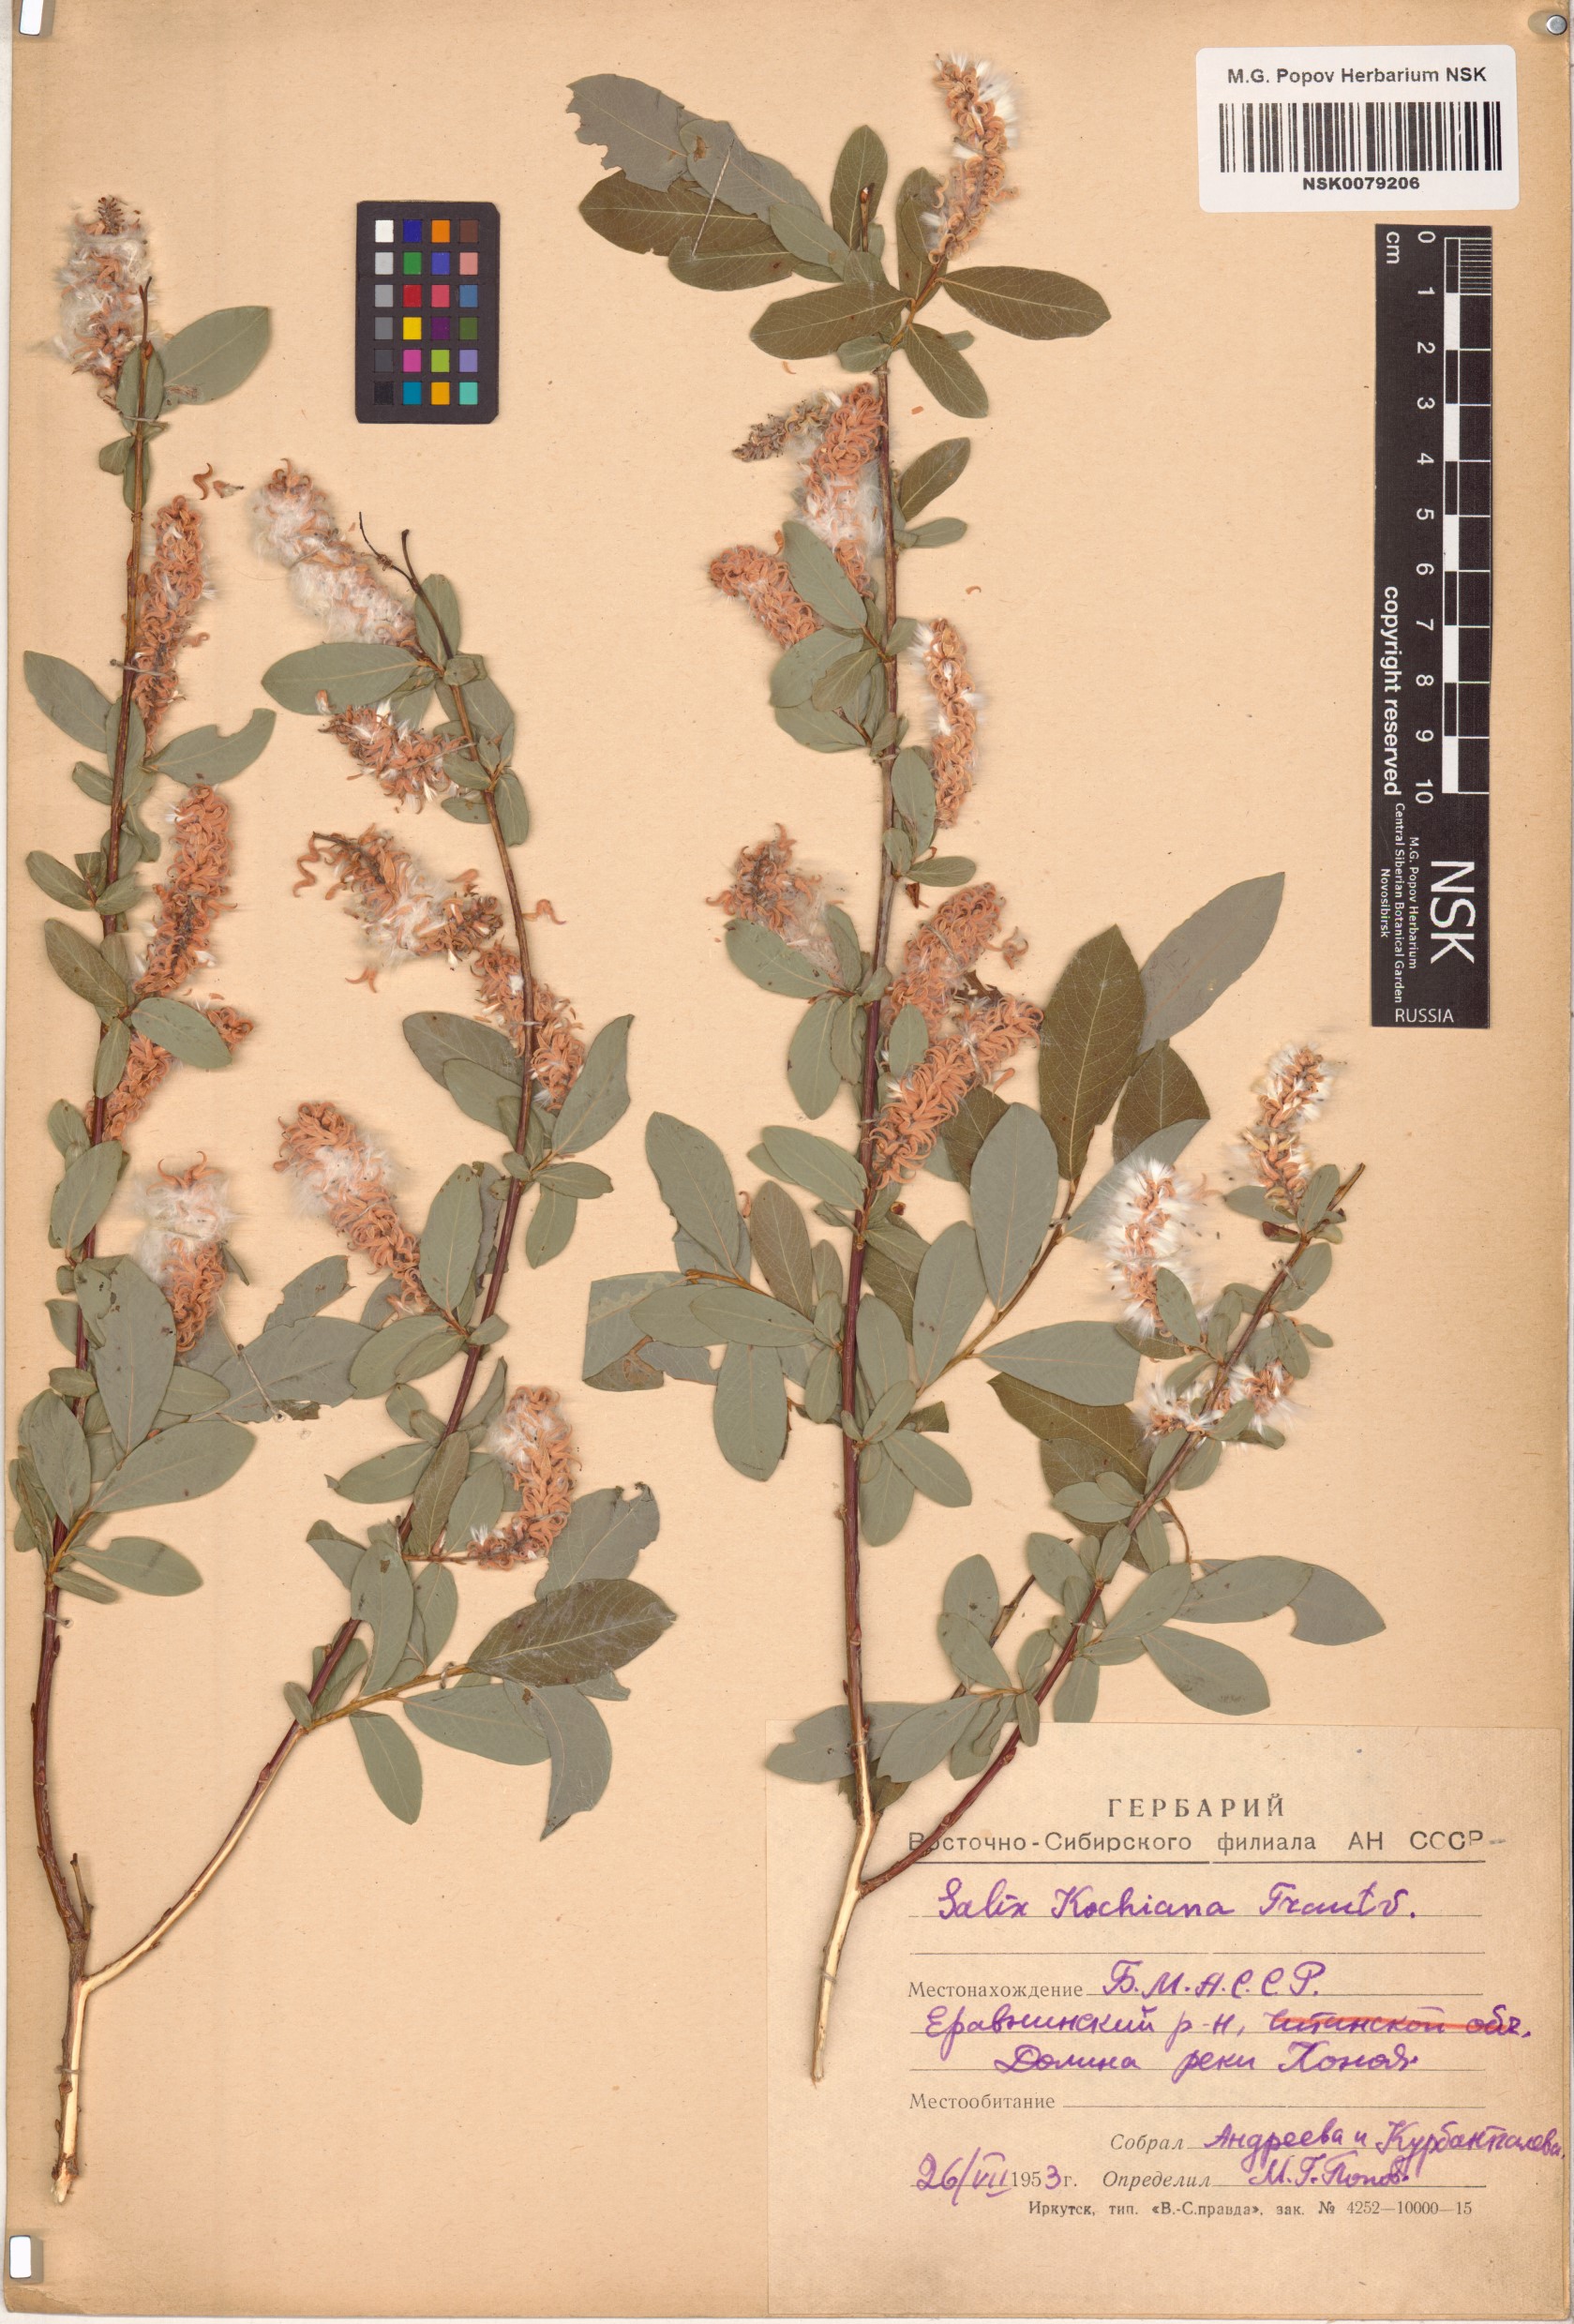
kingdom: Plantae
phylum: Tracheophyta
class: Magnoliopsida
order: Malpighiales
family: Salicaceae
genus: Salix
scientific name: Salix kochiana
